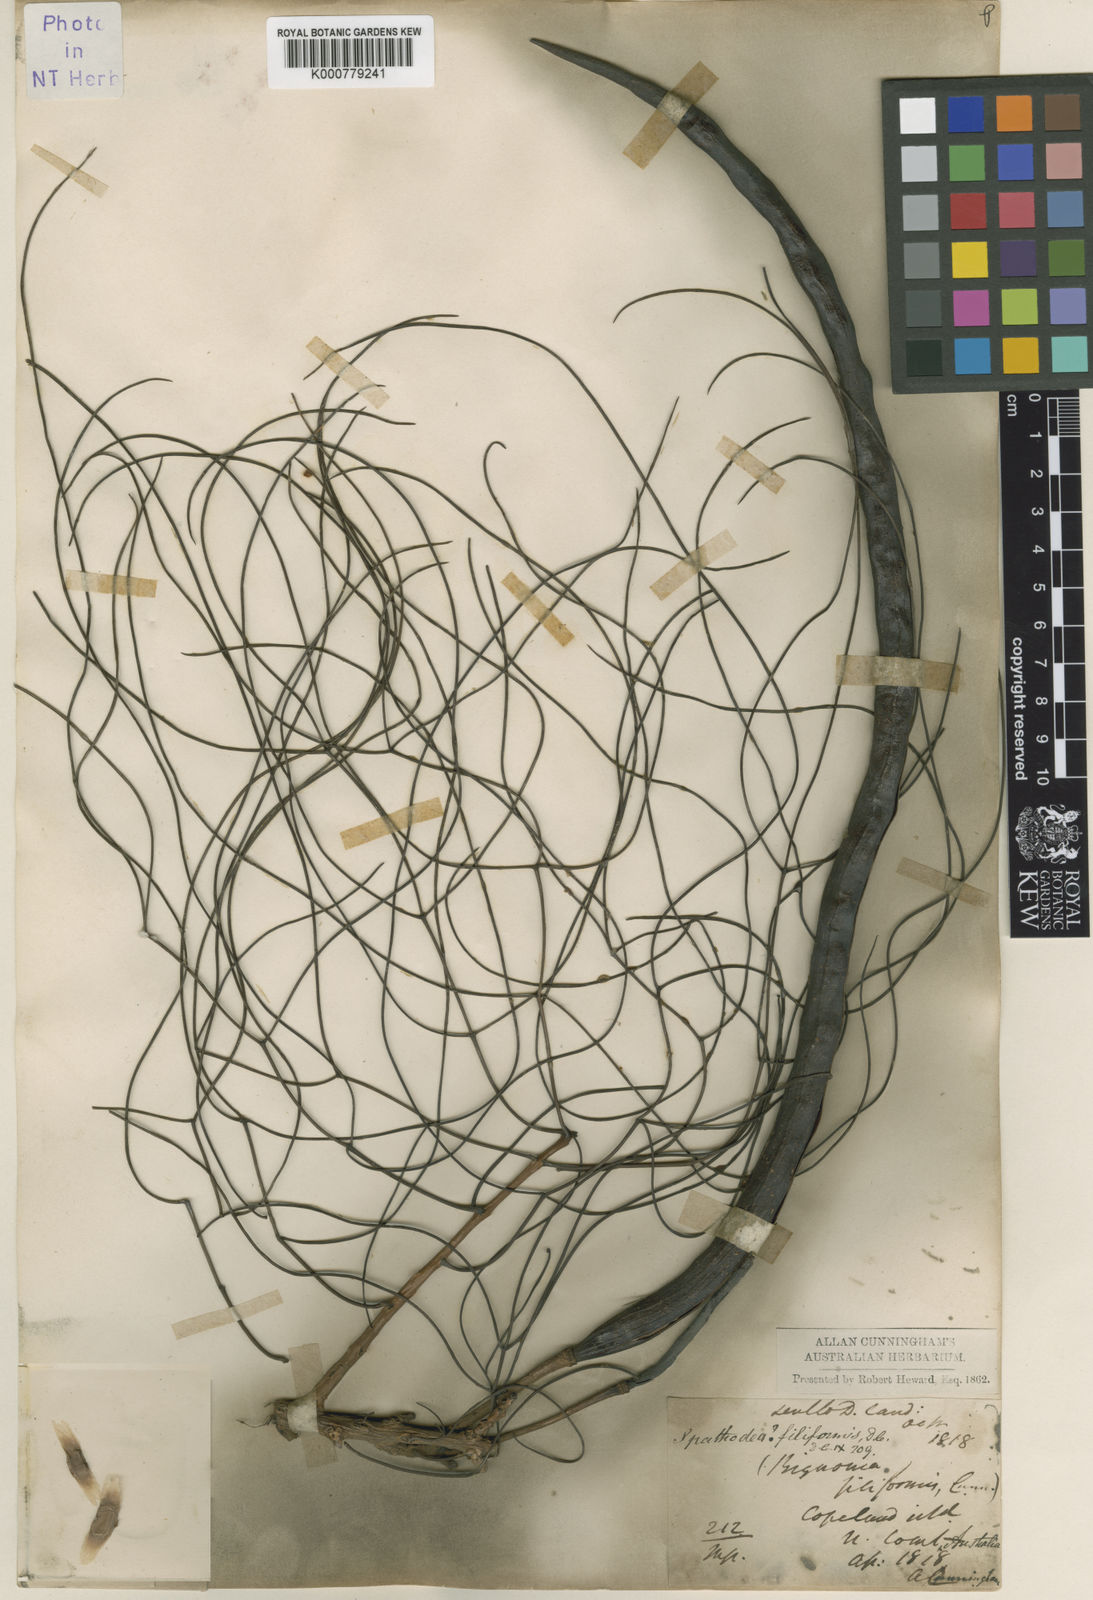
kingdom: Plantae
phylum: Tracheophyta
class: Magnoliopsida
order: Lamiales
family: Bignoniaceae
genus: Dolichandrone
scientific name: Dolichandrone filiformis
